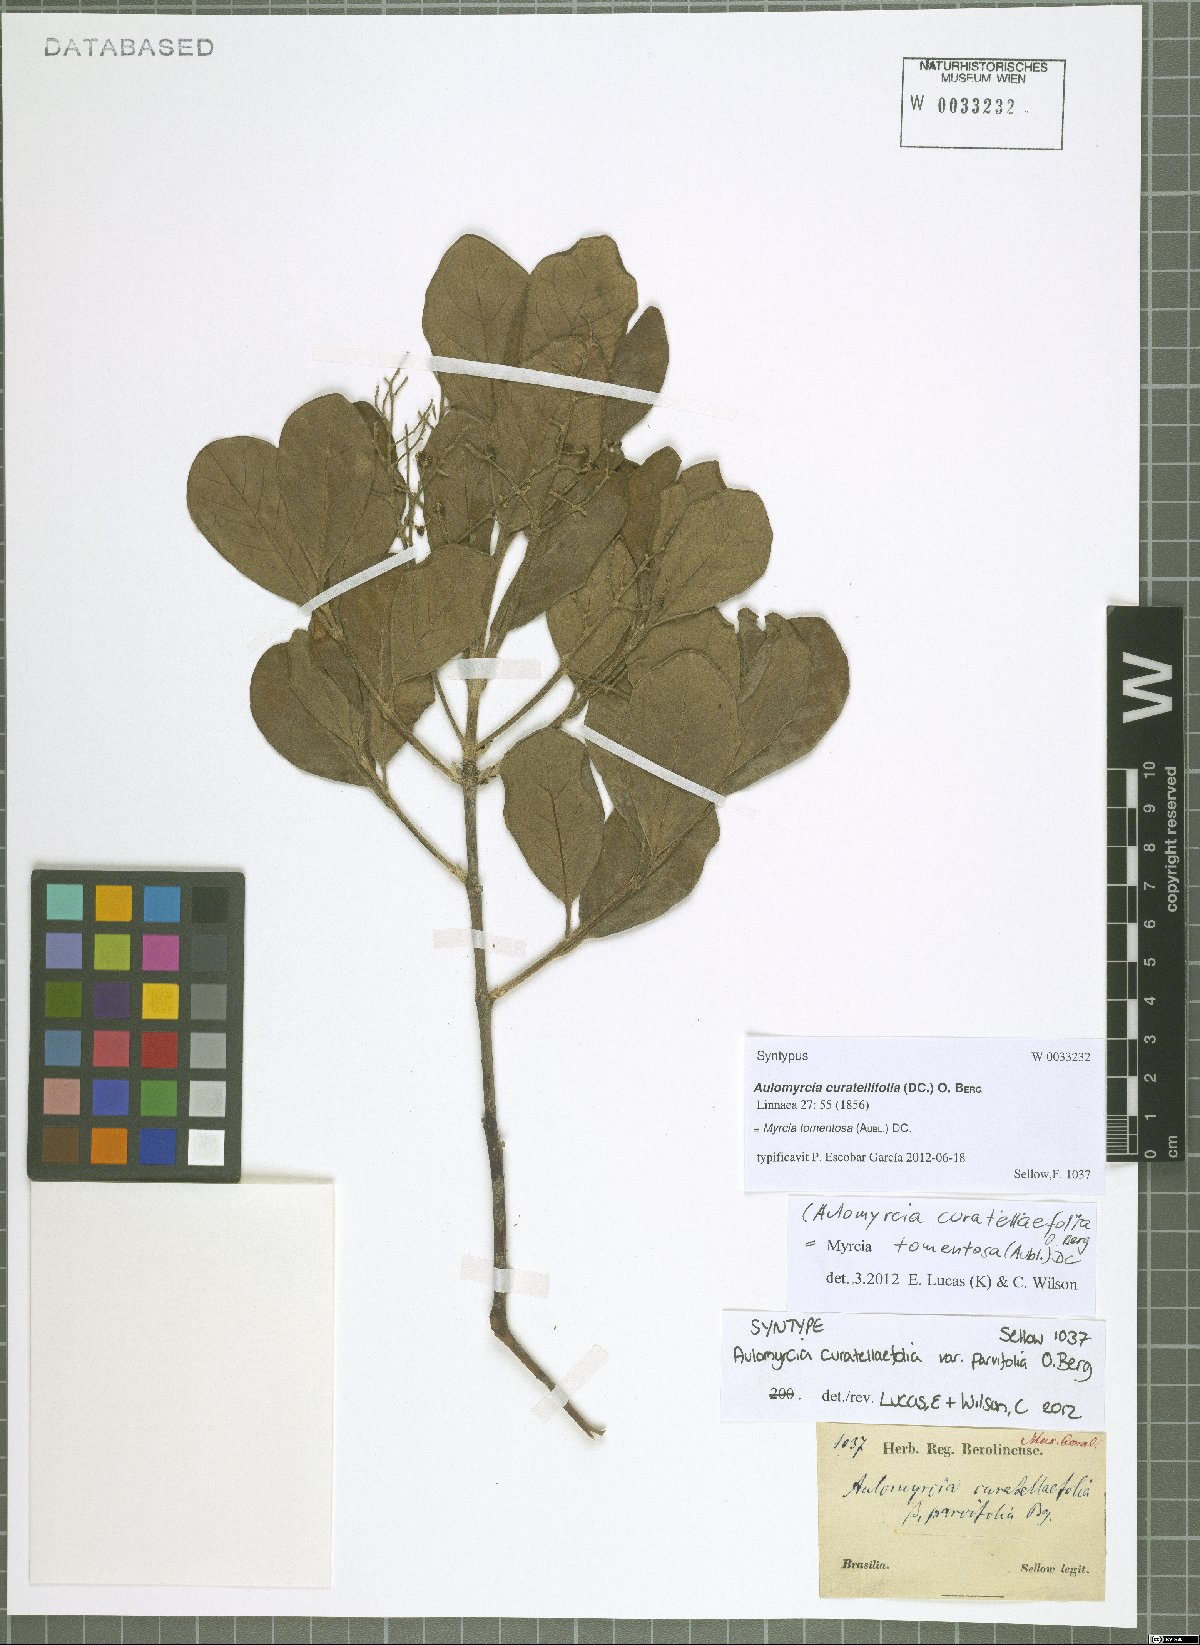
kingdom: Plantae
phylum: Tracheophyta
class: Magnoliopsida
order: Myrtales
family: Myrtaceae
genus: Myrcia
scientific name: Myrcia tomentosa
